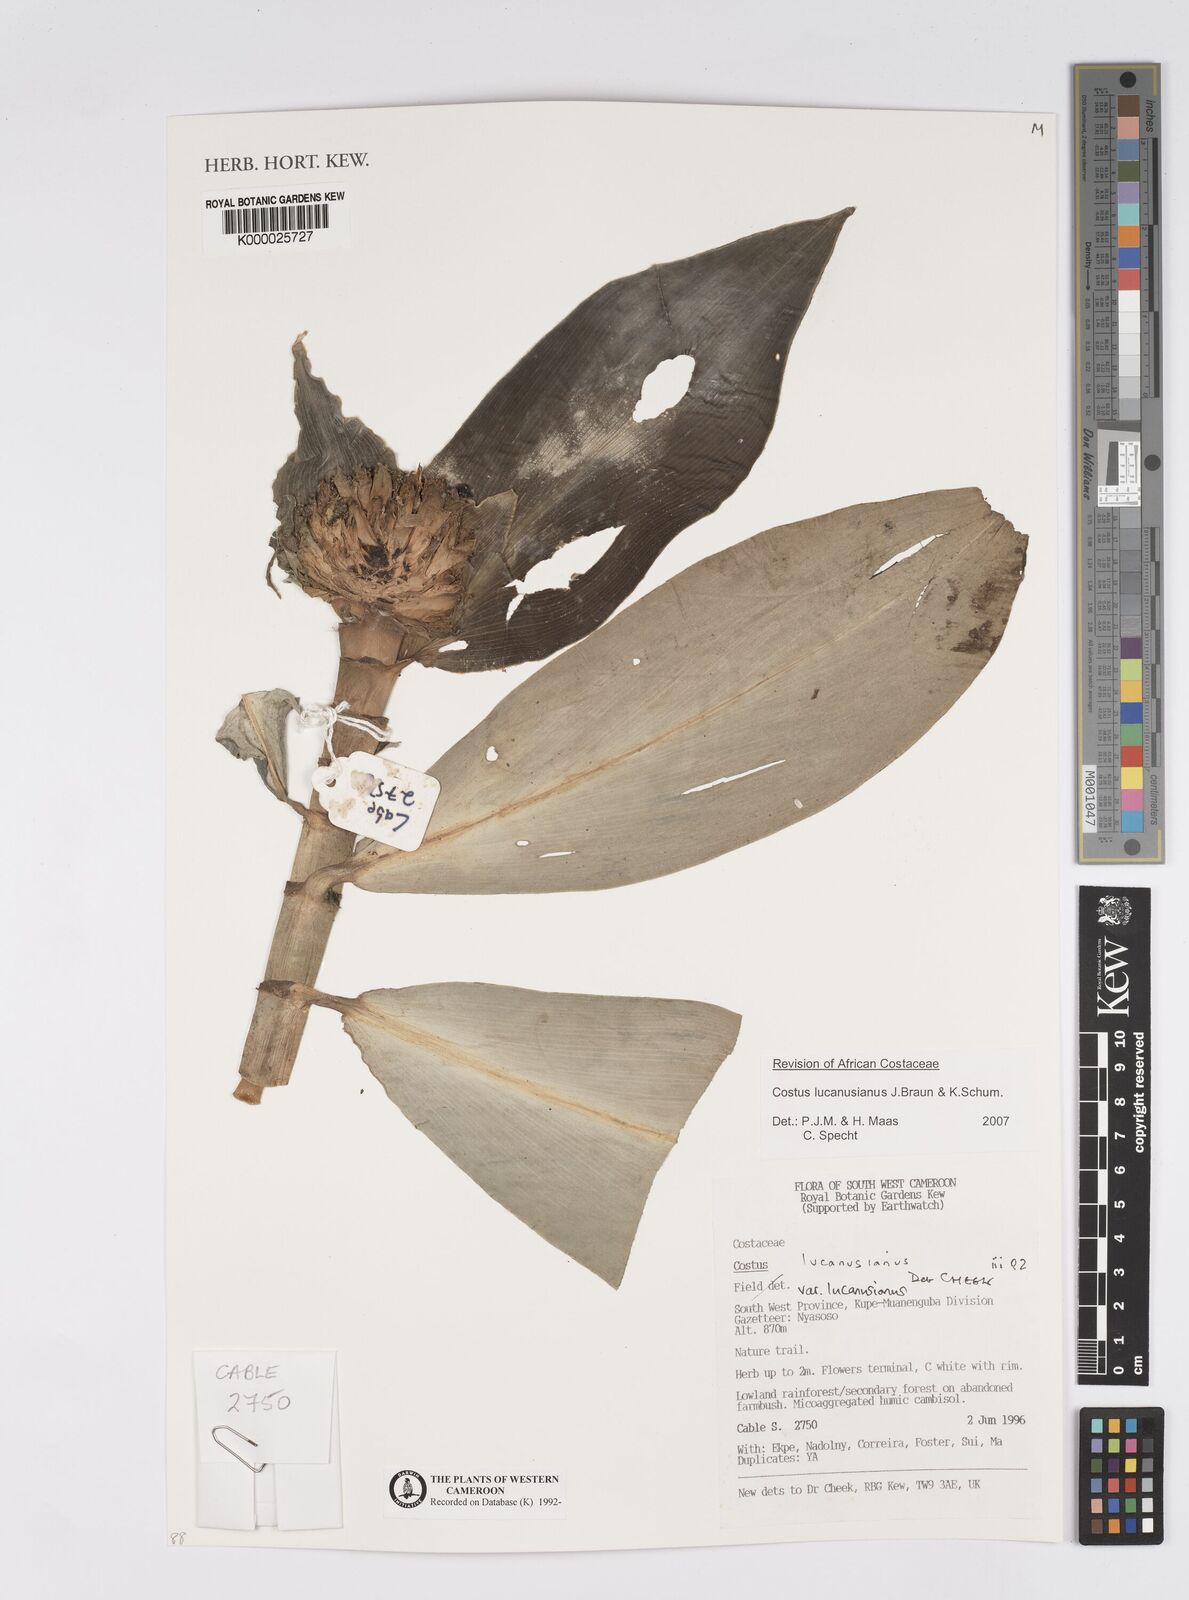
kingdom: Plantae
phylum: Tracheophyta
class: Liliopsida
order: Zingiberales
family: Costaceae
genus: Costus
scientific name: Costus lucanusianus
